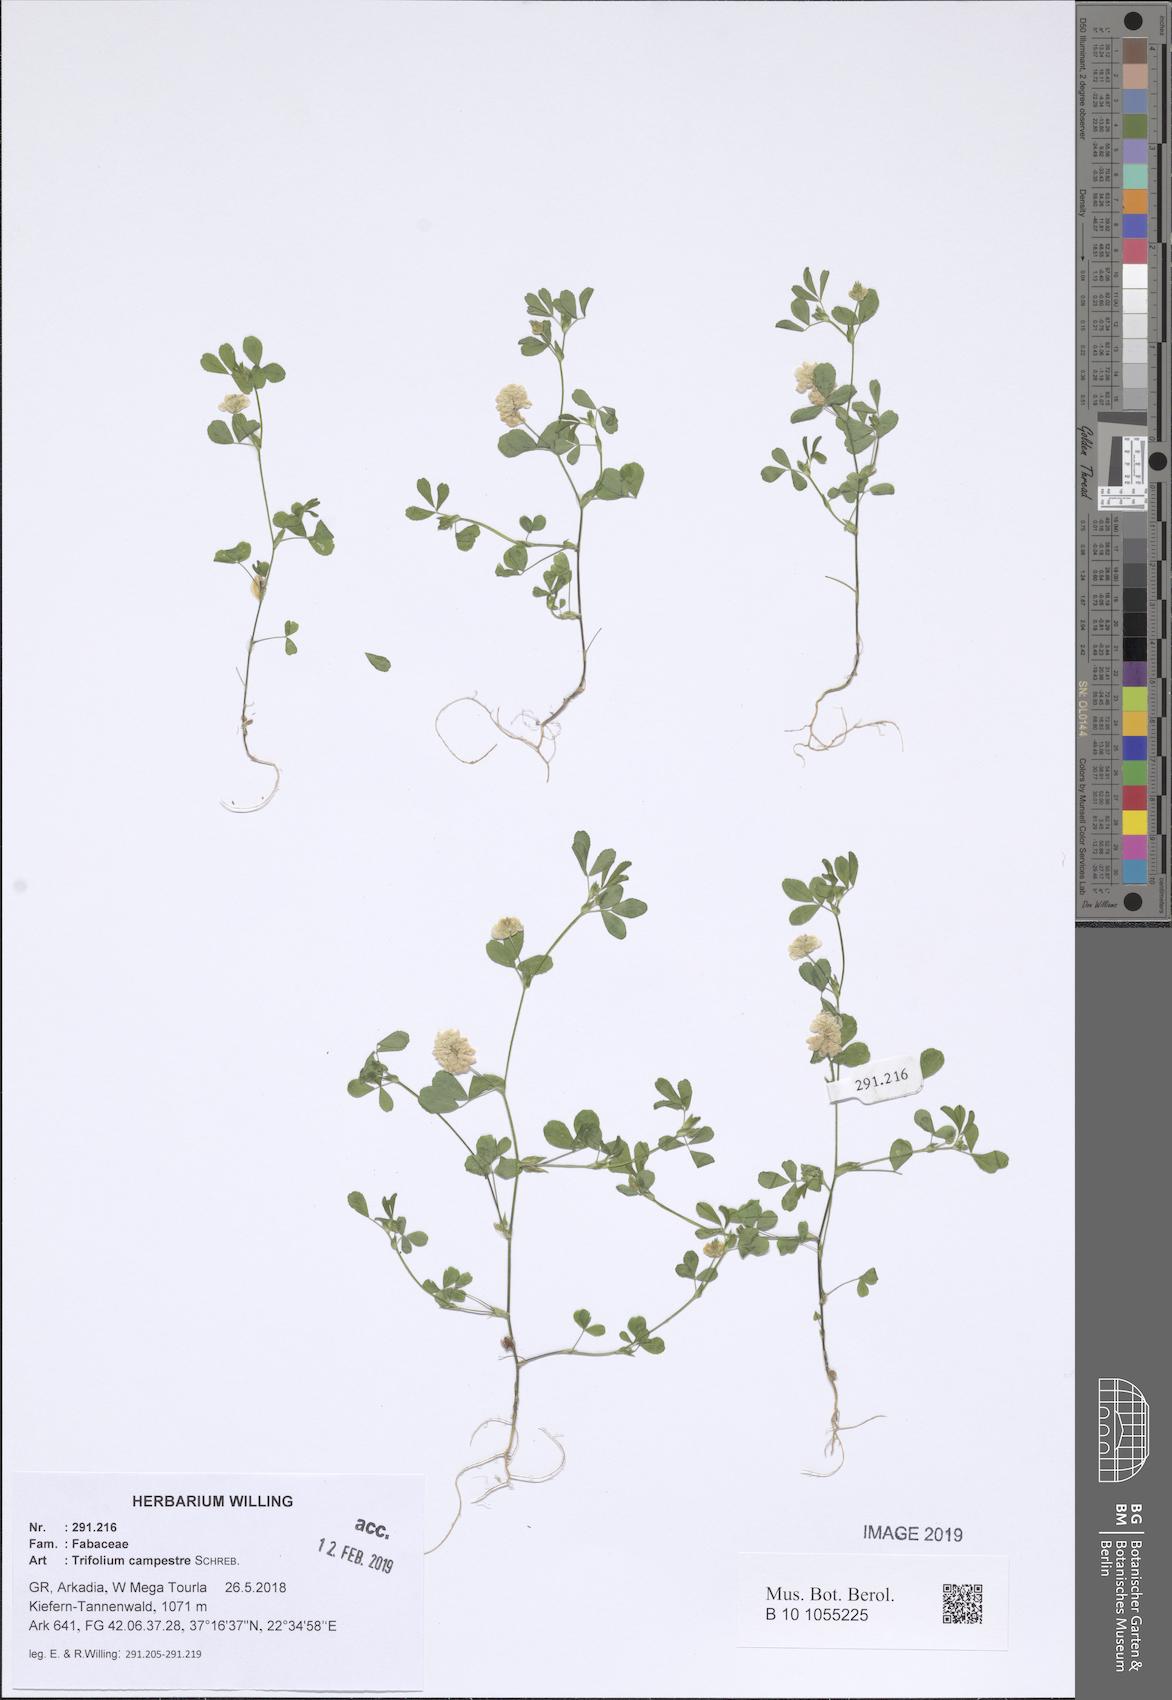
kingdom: Plantae
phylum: Tracheophyta
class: Magnoliopsida
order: Fabales
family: Fabaceae
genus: Trifolium
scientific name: Trifolium campestre
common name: Field clover
